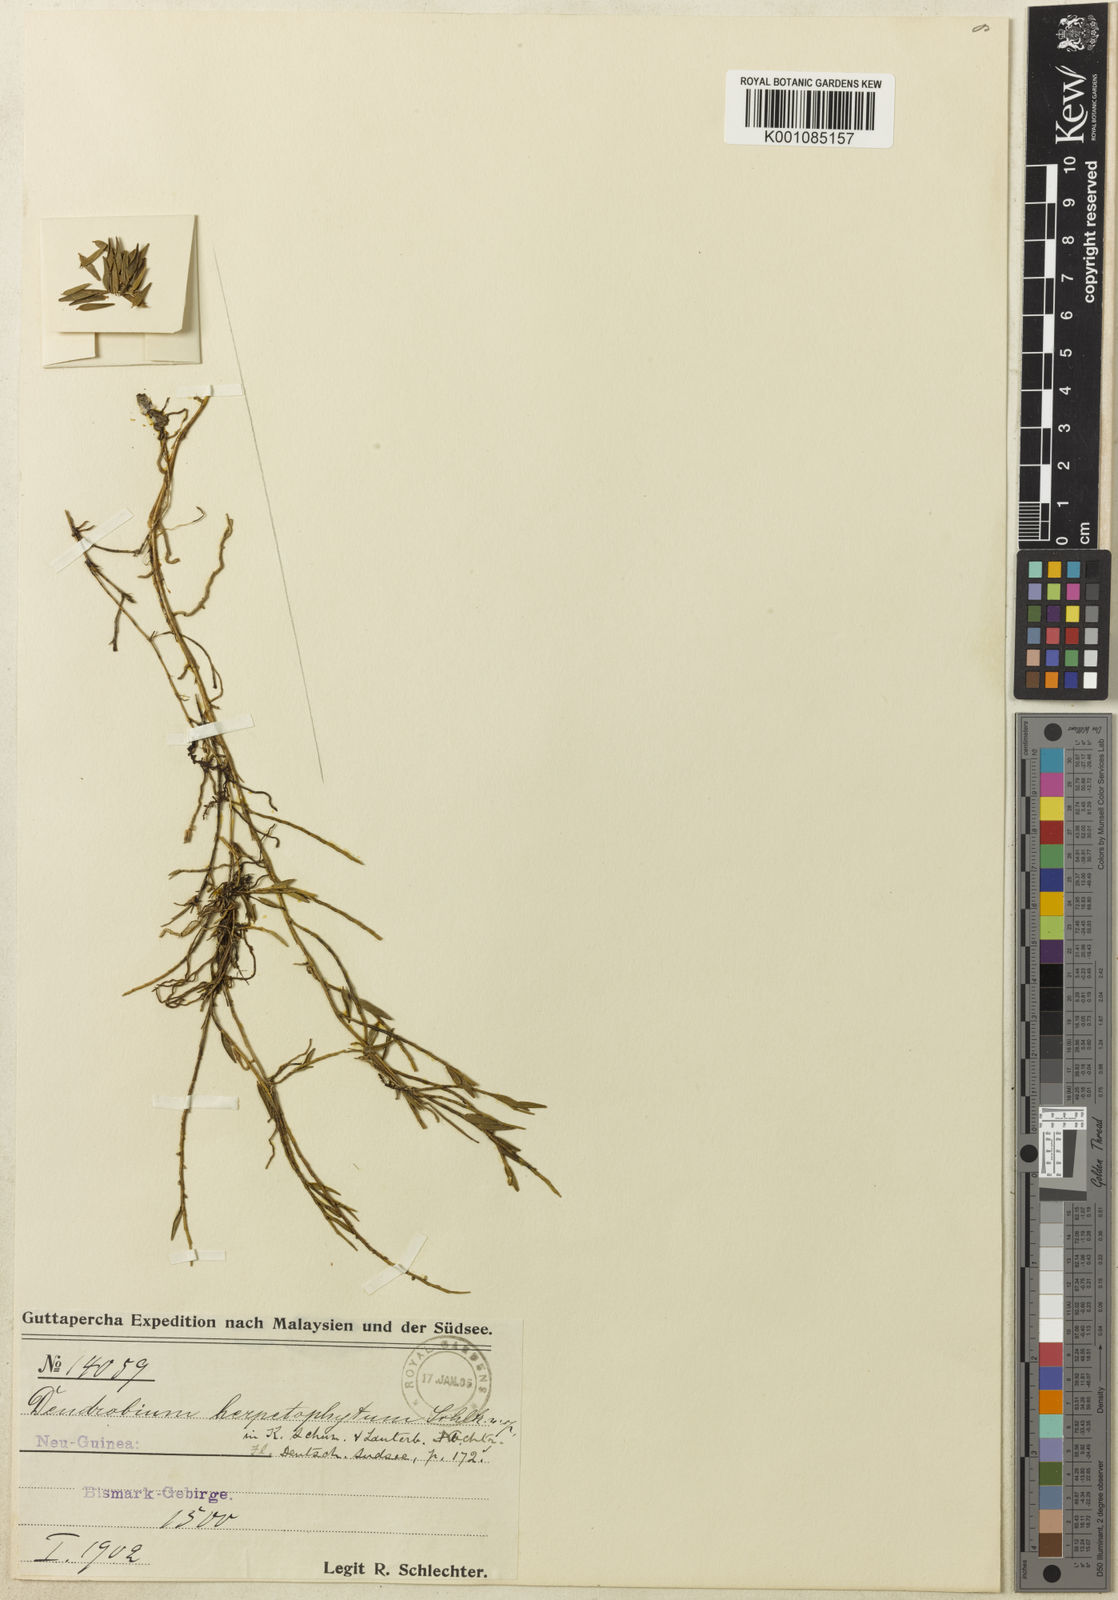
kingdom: Plantae
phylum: Tracheophyta
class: Liliopsida
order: Asparagales
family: Orchidaceae
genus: Dendrobium
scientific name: Dendrobium herpetophytum
